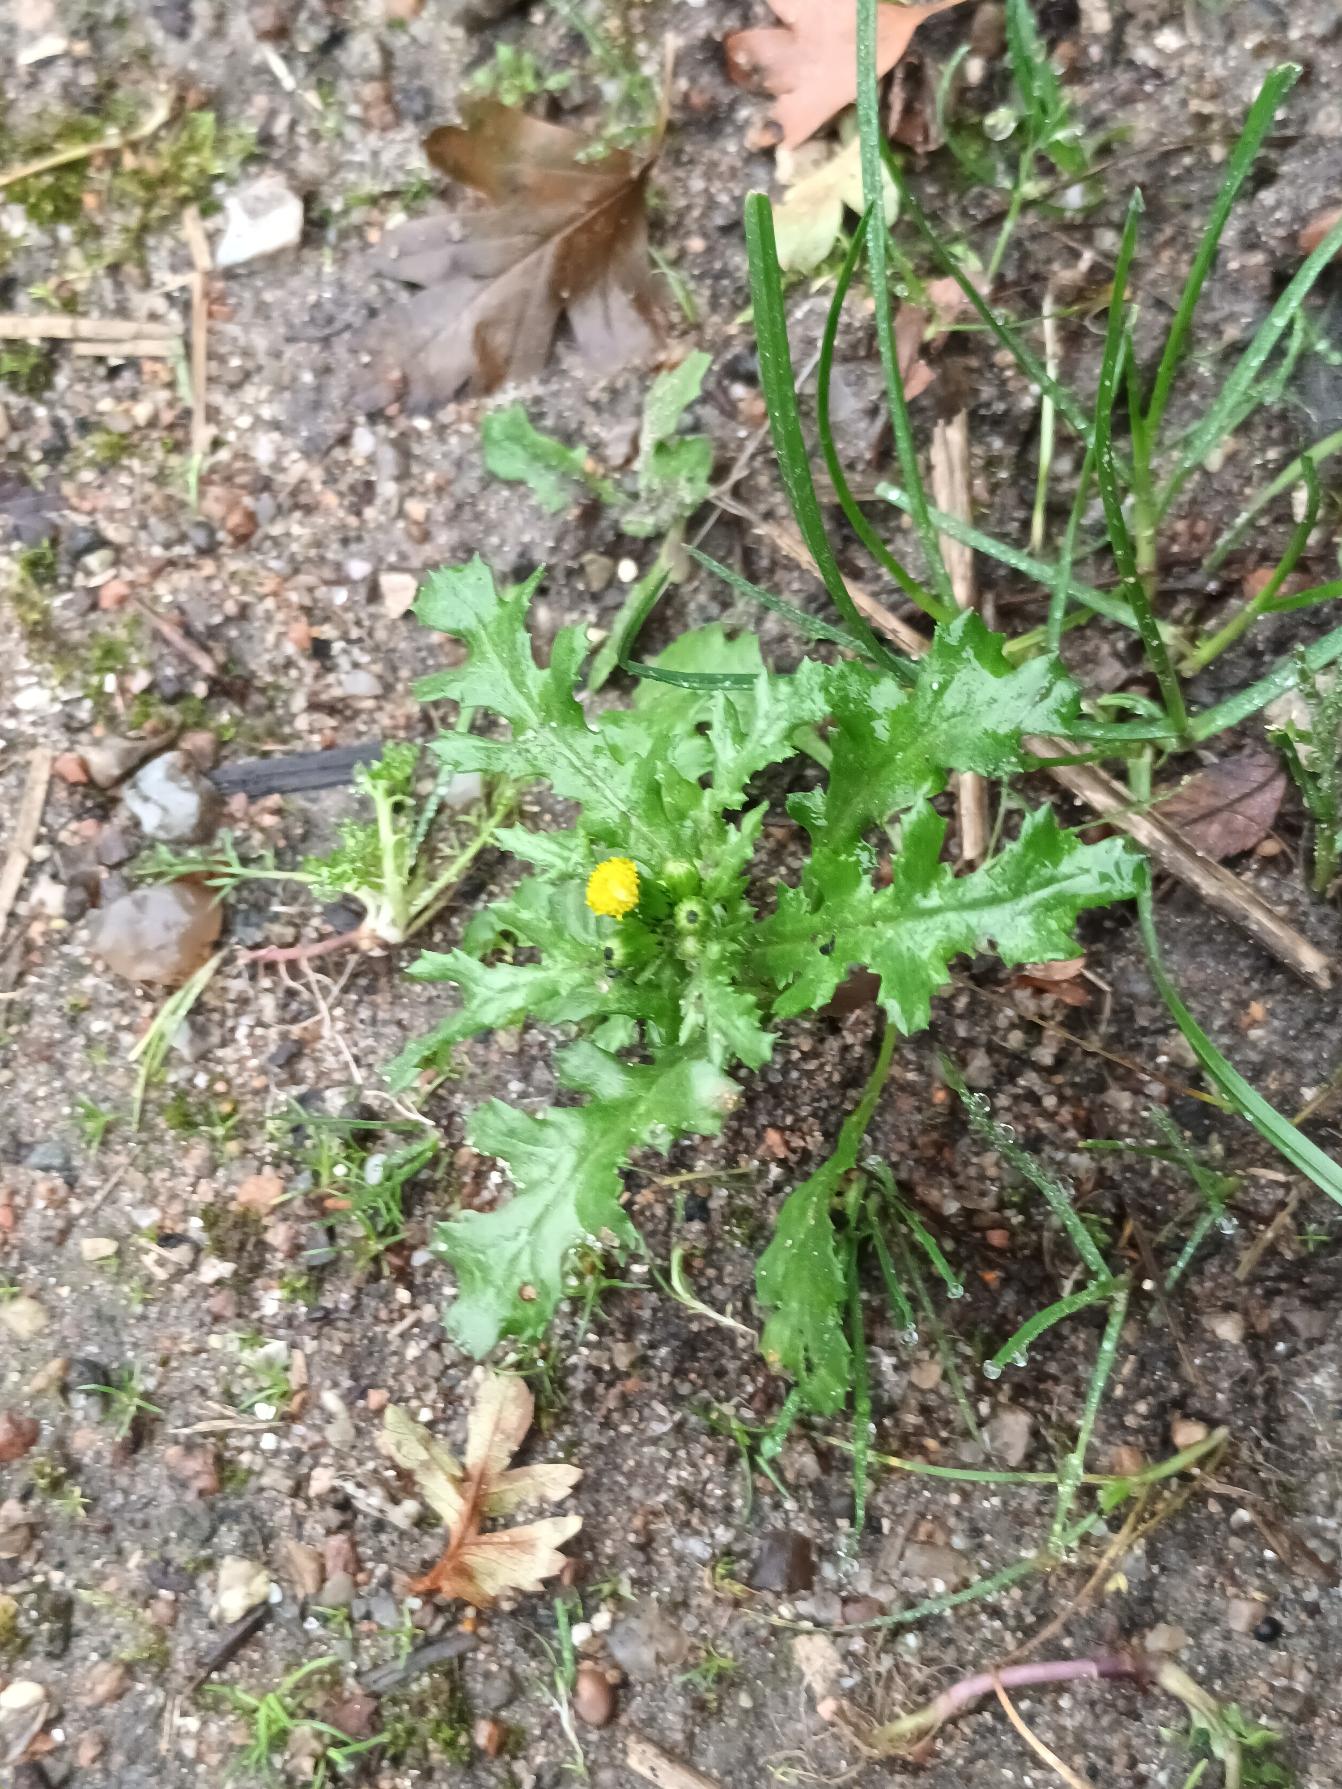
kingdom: Plantae
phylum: Tracheophyta
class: Magnoliopsida
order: Asterales
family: Asteraceae
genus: Senecio
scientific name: Senecio vulgaris
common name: Almindelig brandbæger
